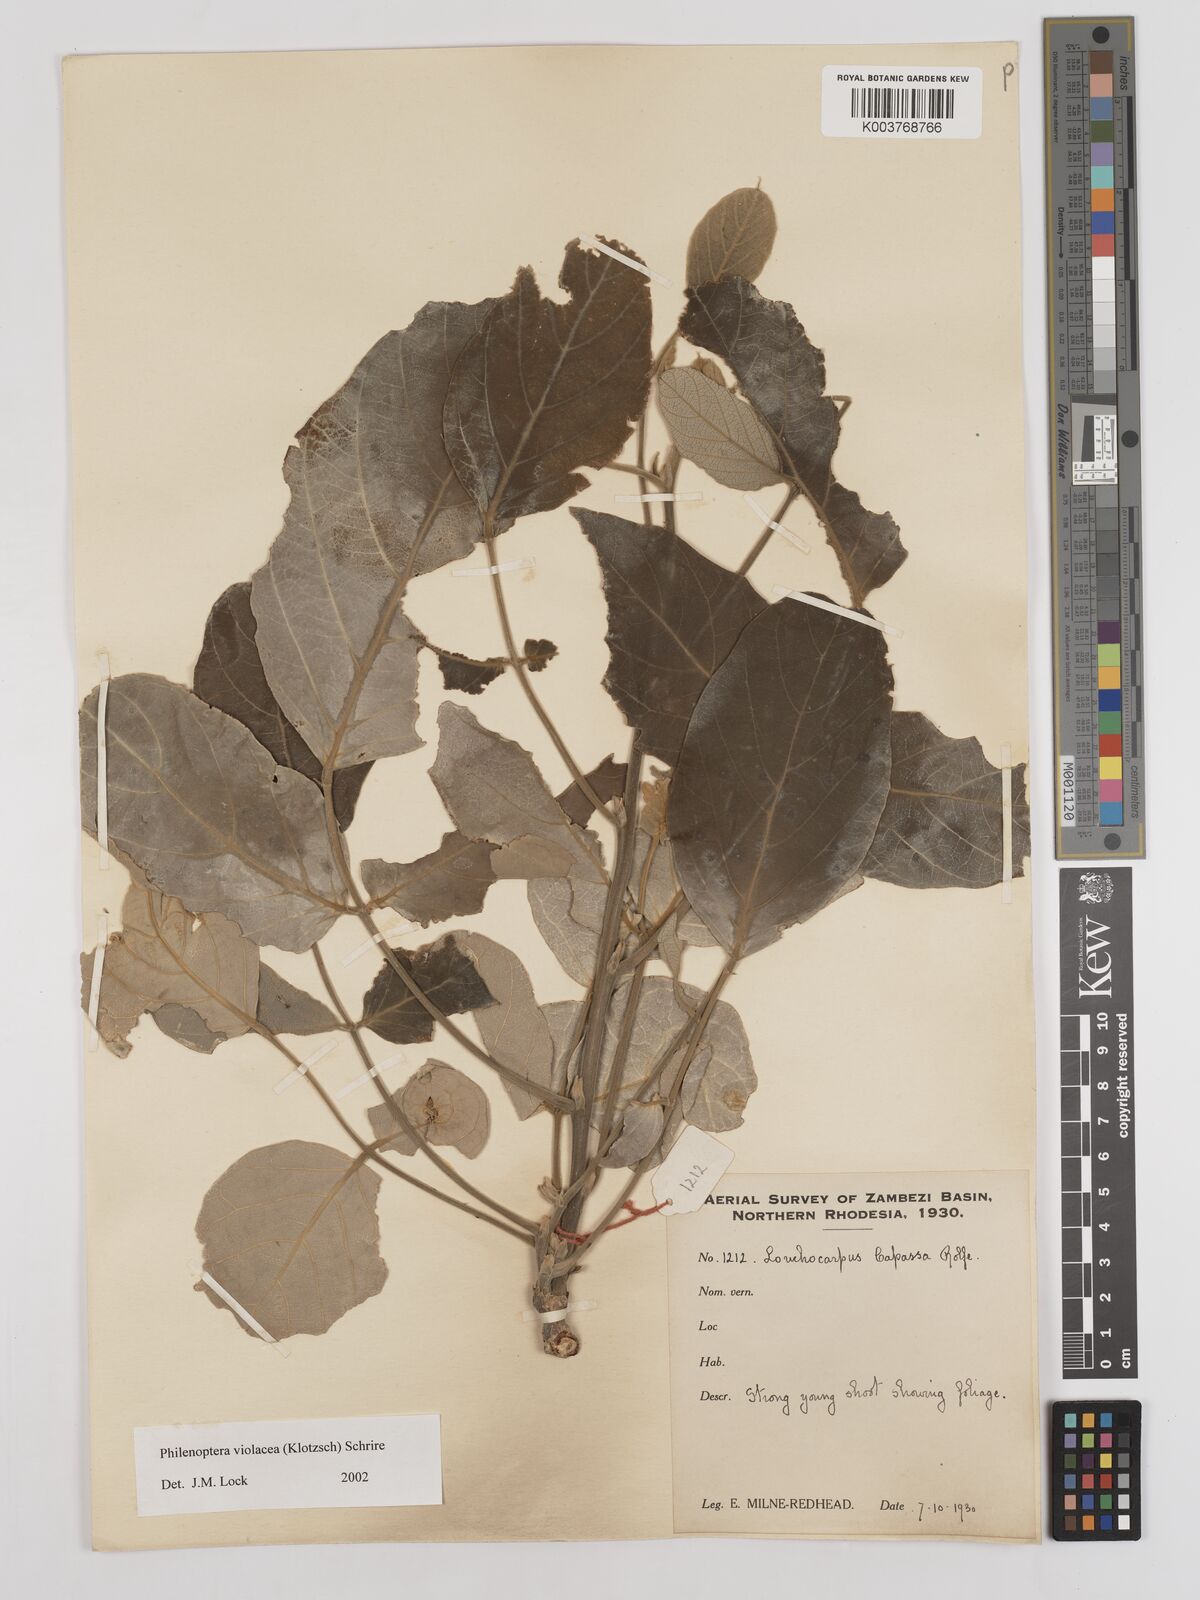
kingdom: Plantae
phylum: Tracheophyta
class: Magnoliopsida
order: Fabales
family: Fabaceae
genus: Philenoptera
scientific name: Philenoptera violacea
